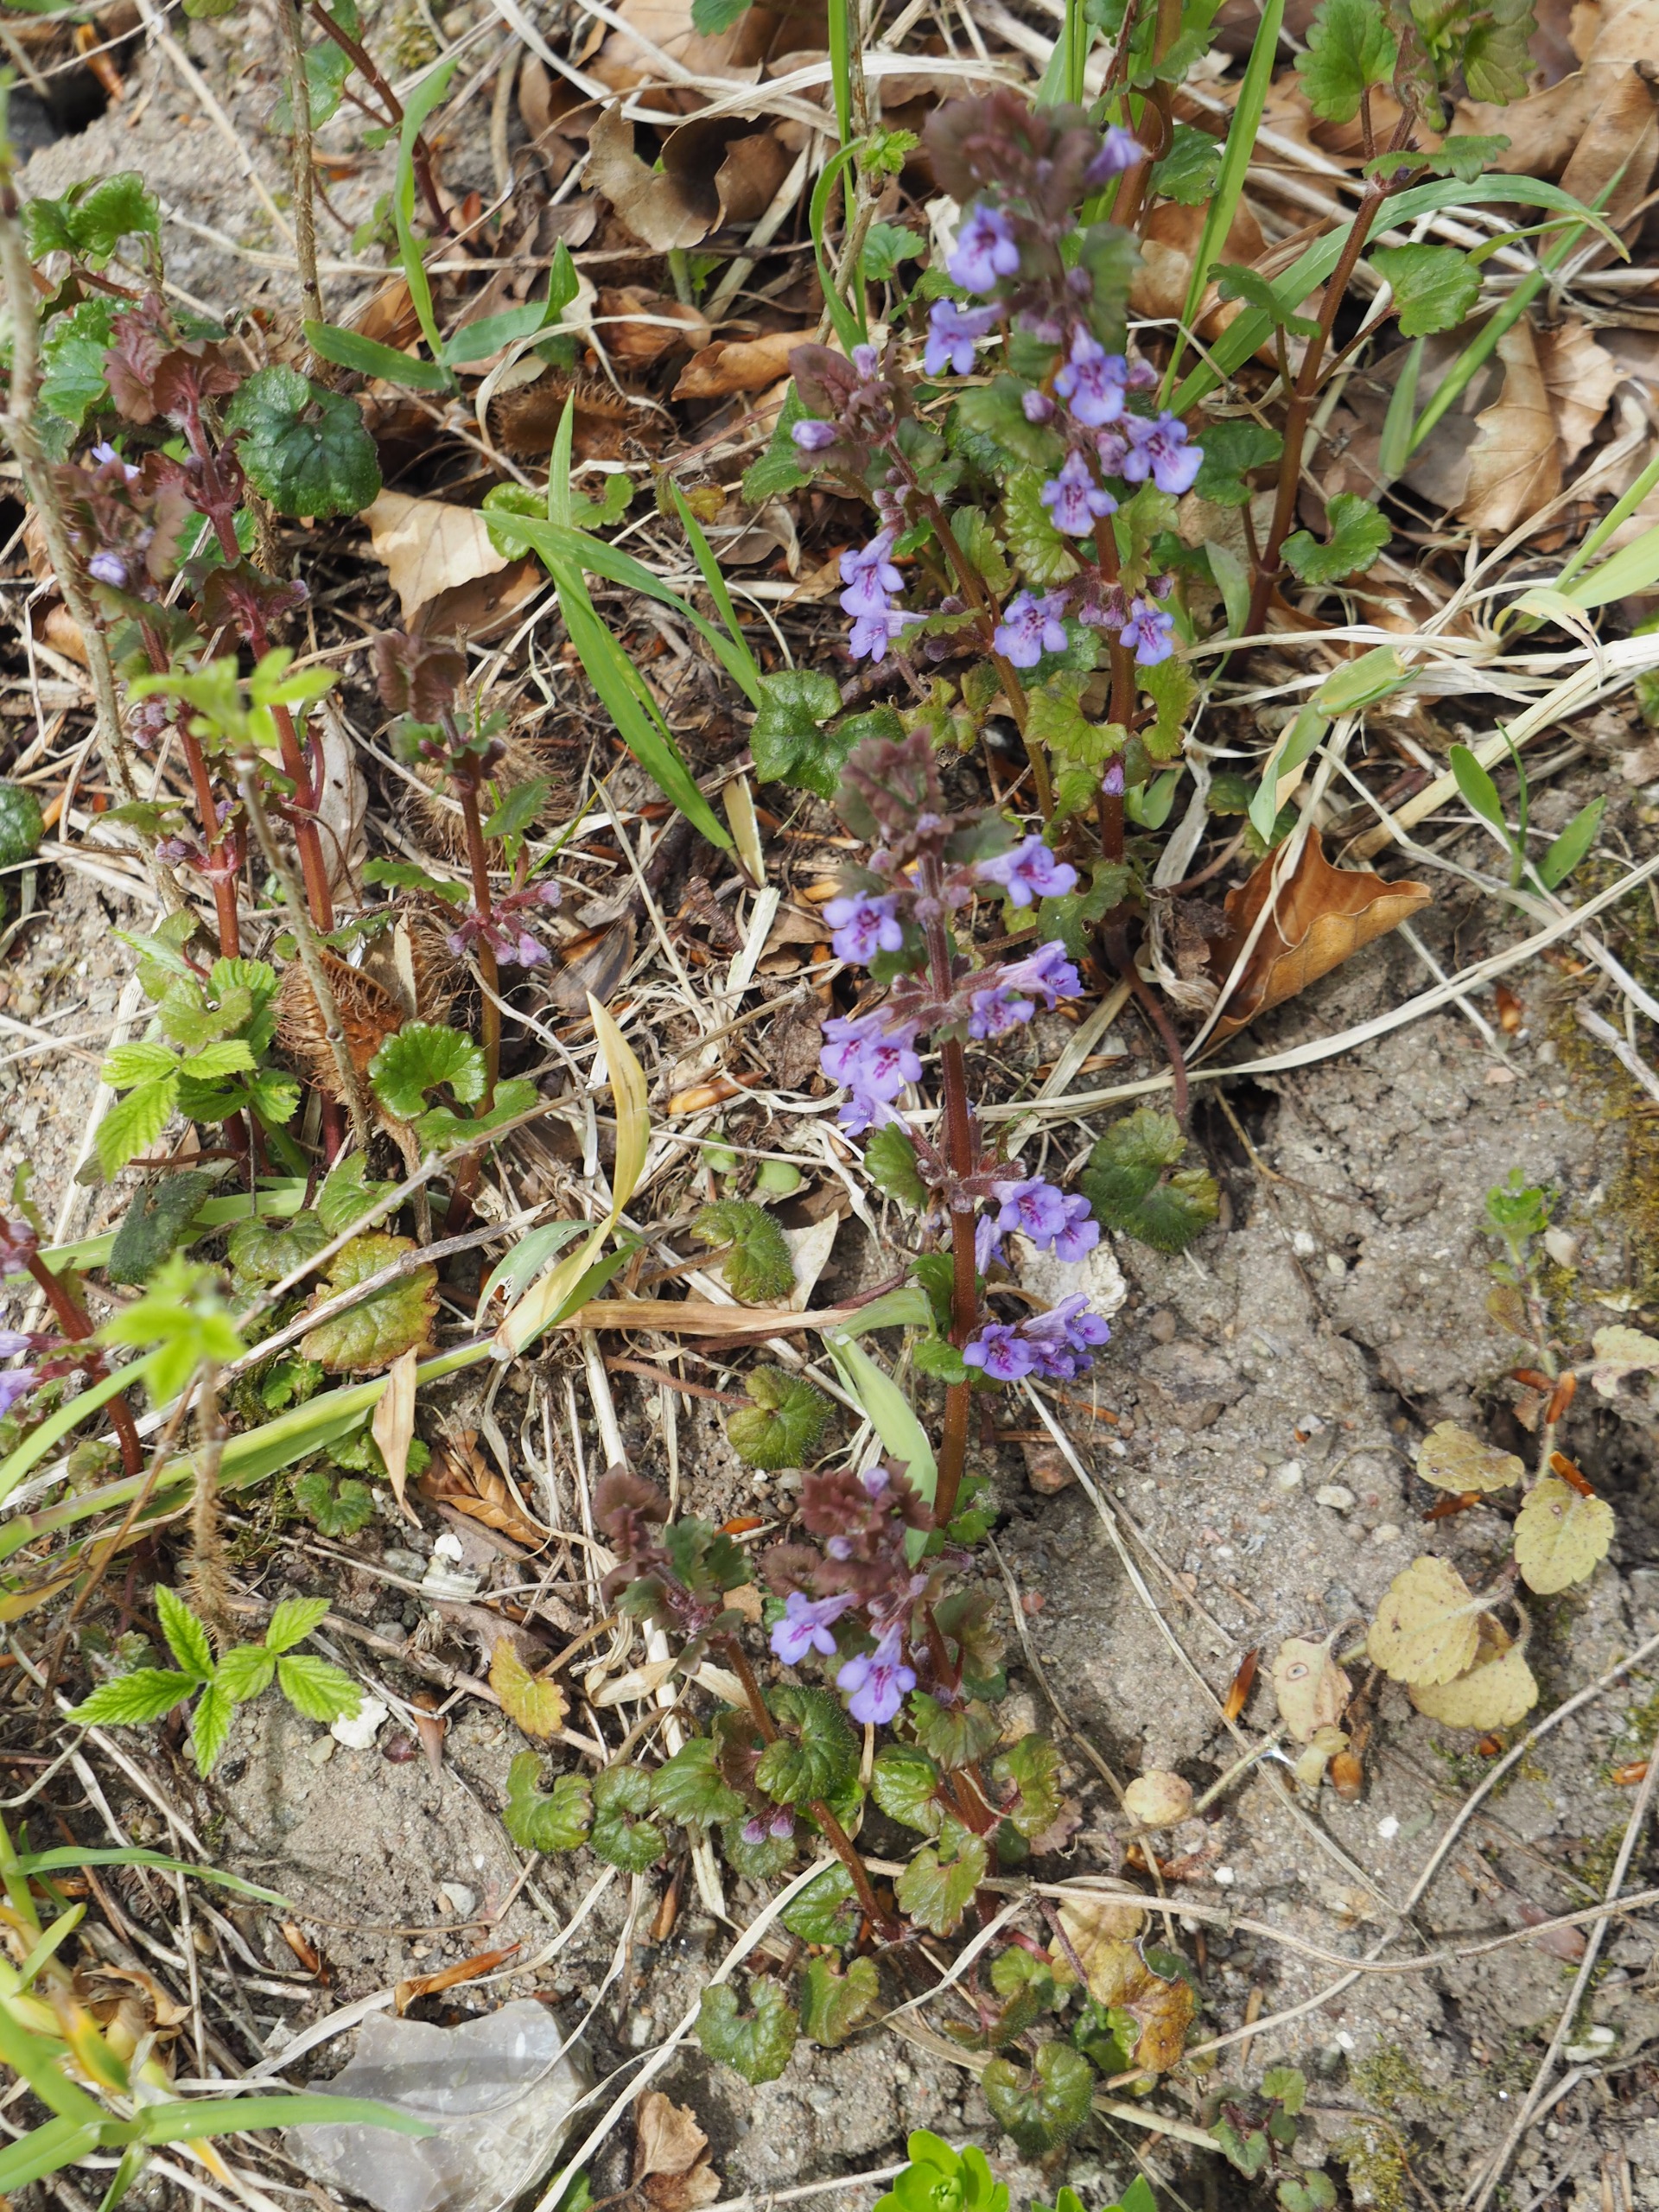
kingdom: Plantae
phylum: Tracheophyta
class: Magnoliopsida
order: Lamiales
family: Lamiaceae
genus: Glechoma
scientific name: Glechoma hederacea
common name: Korsknap
